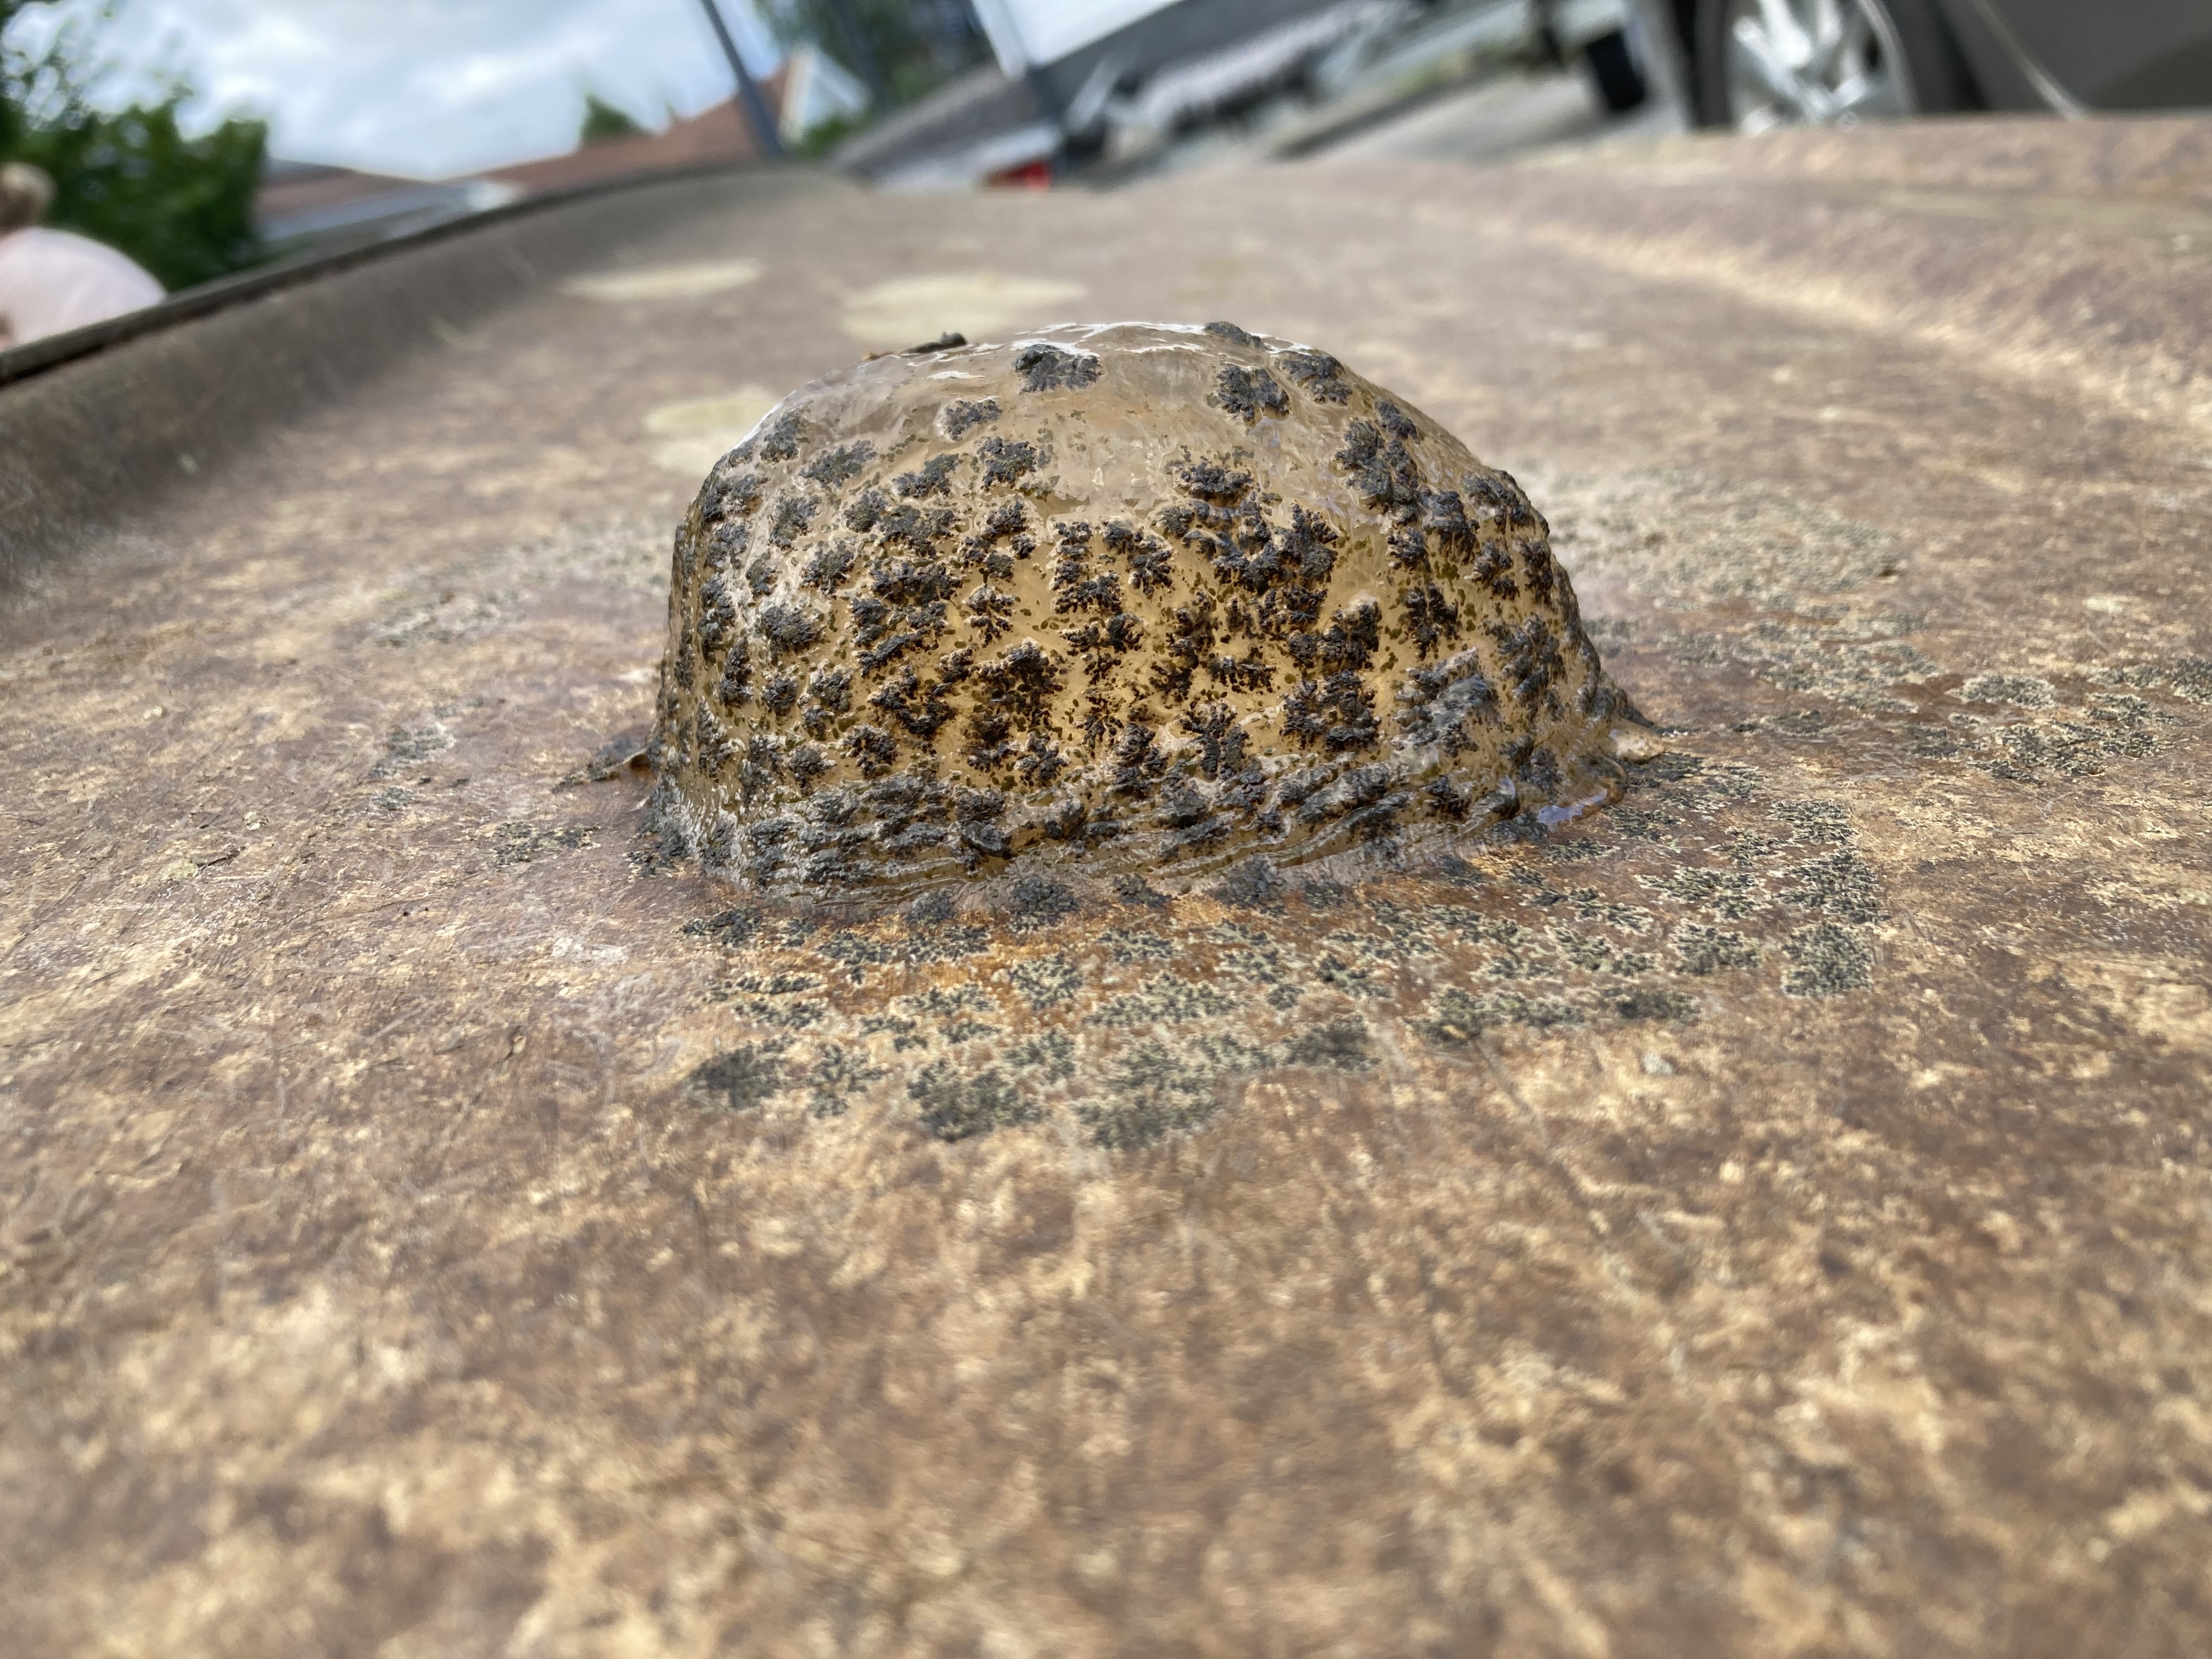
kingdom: Animalia
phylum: Bryozoa
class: Phylactolaemata
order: Plumatellida
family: Pectinatellidae
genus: Pectinatella
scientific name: Pectinatella magnifica
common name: Magnificent bryozoan
